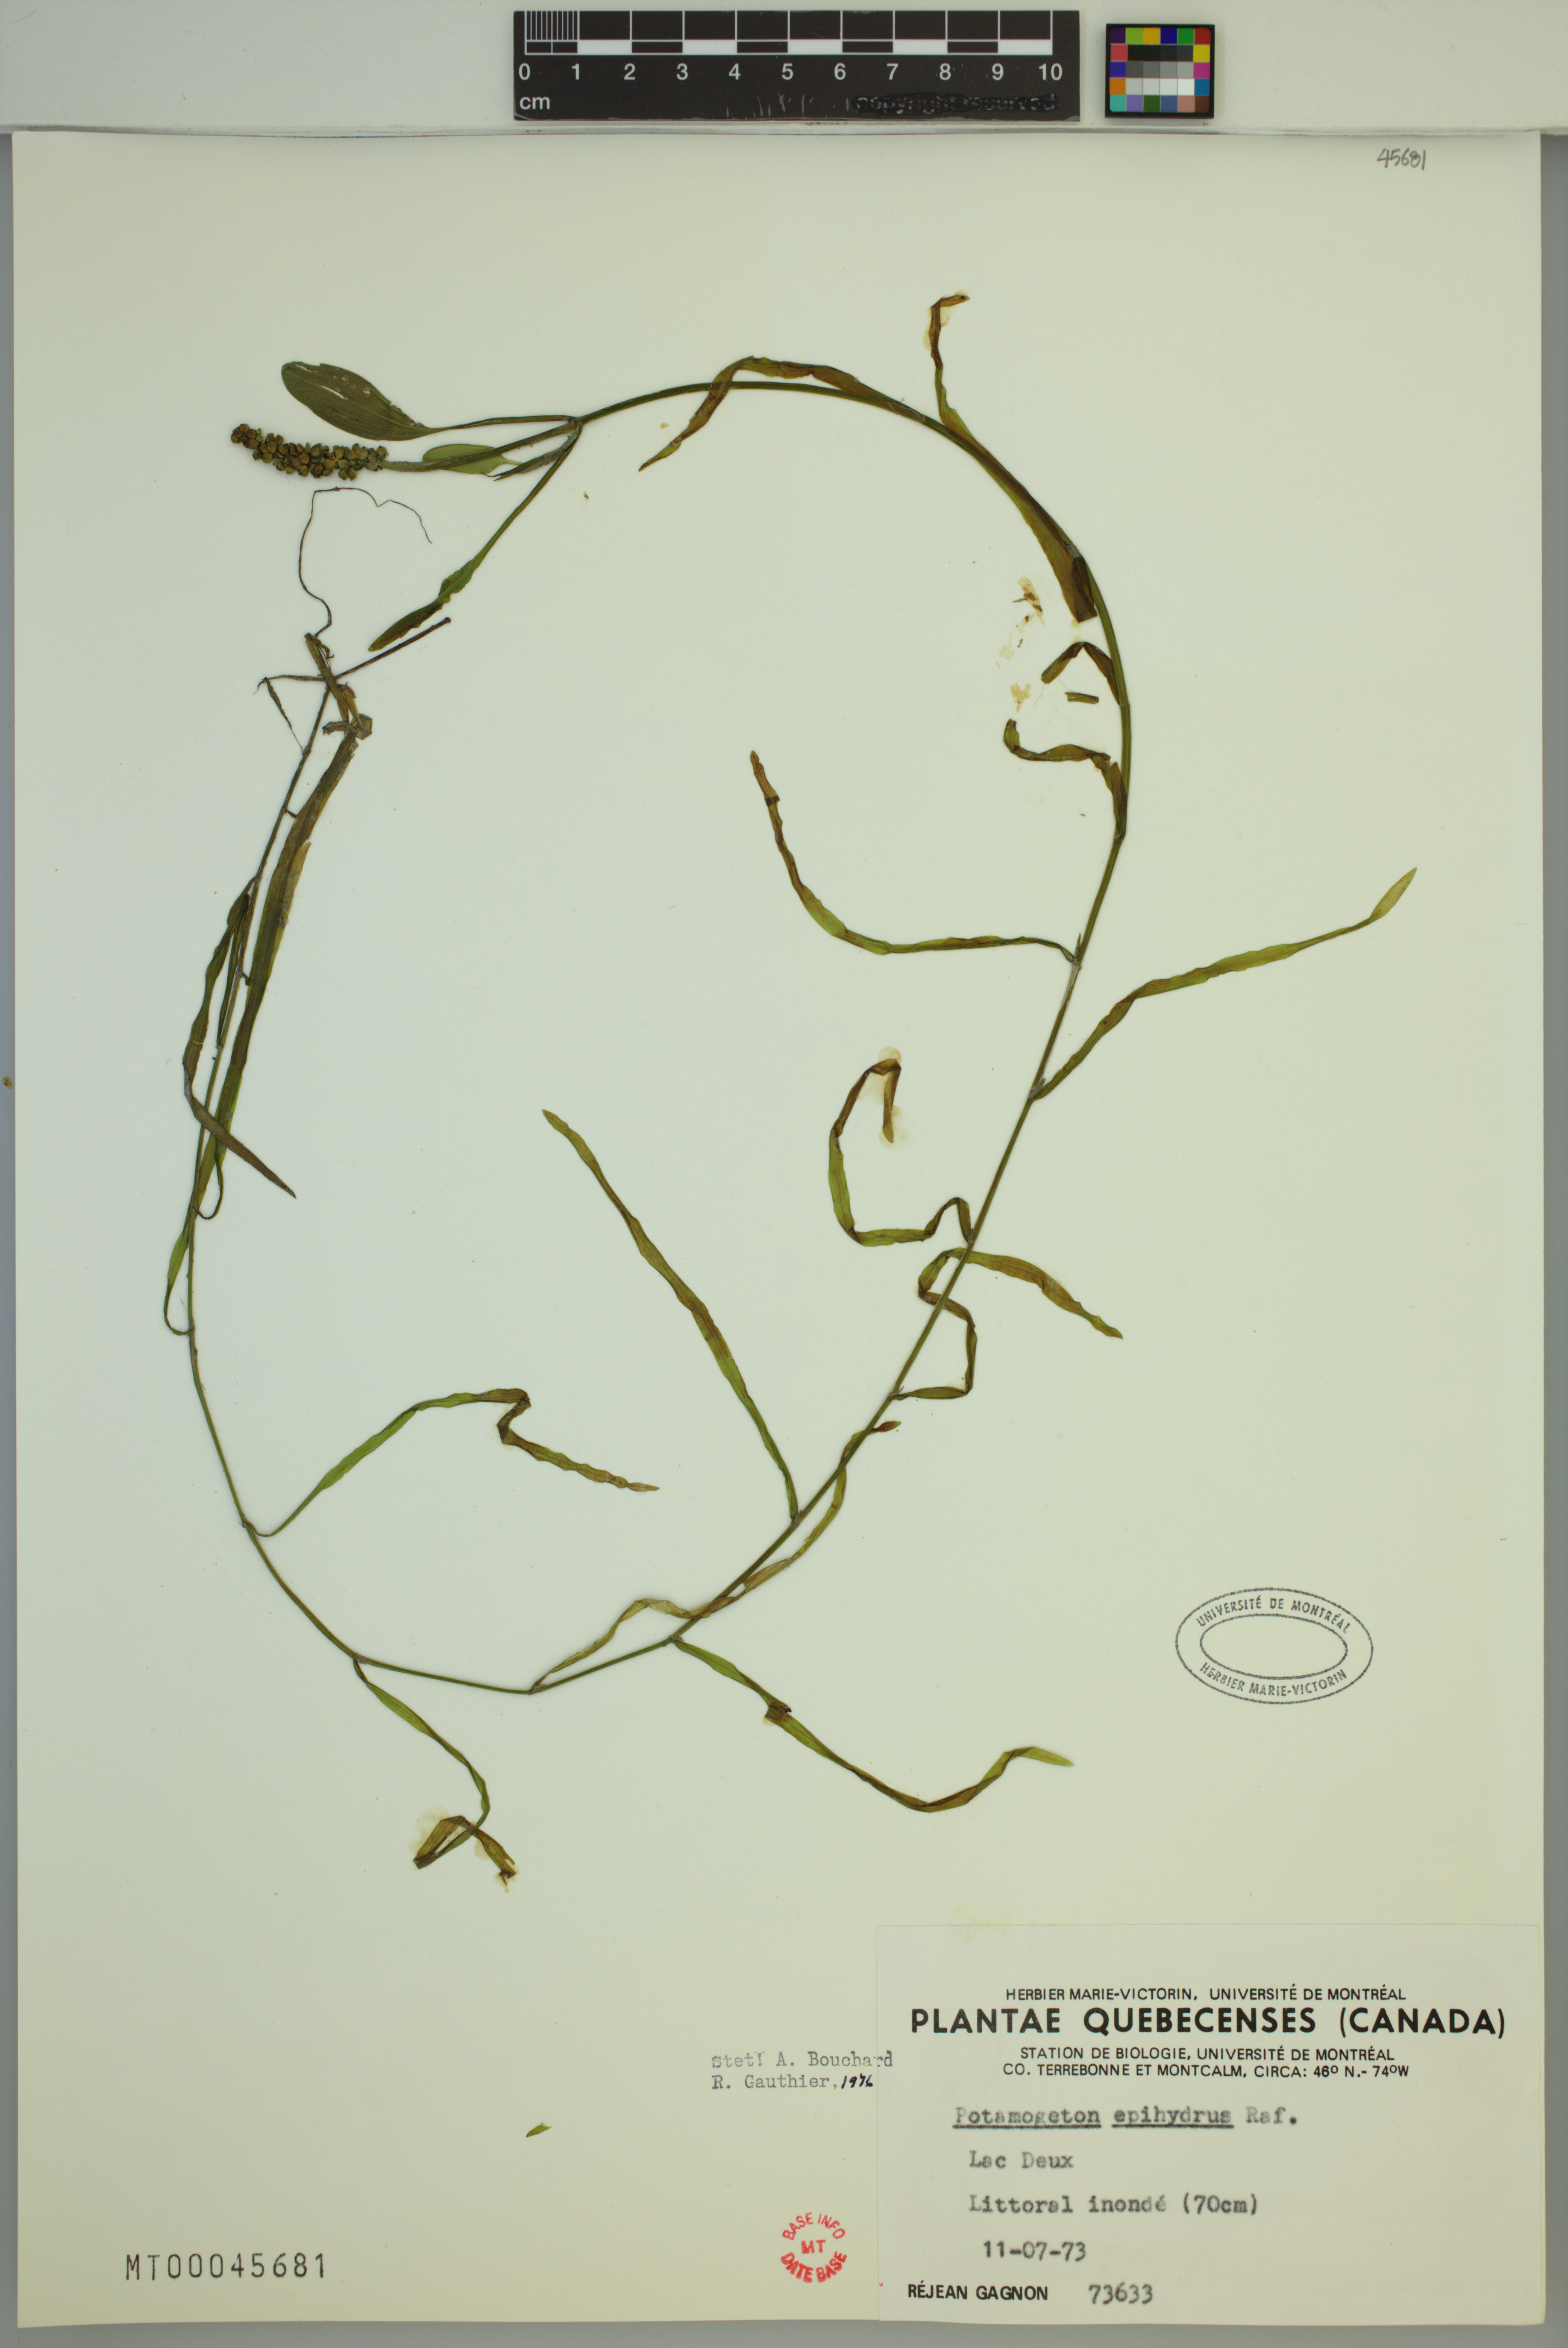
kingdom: Plantae
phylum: Tracheophyta
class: Liliopsida
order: Alismatales
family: Potamogetonaceae
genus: Potamogeton
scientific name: Potamogeton epihydrus
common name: American pondweed
